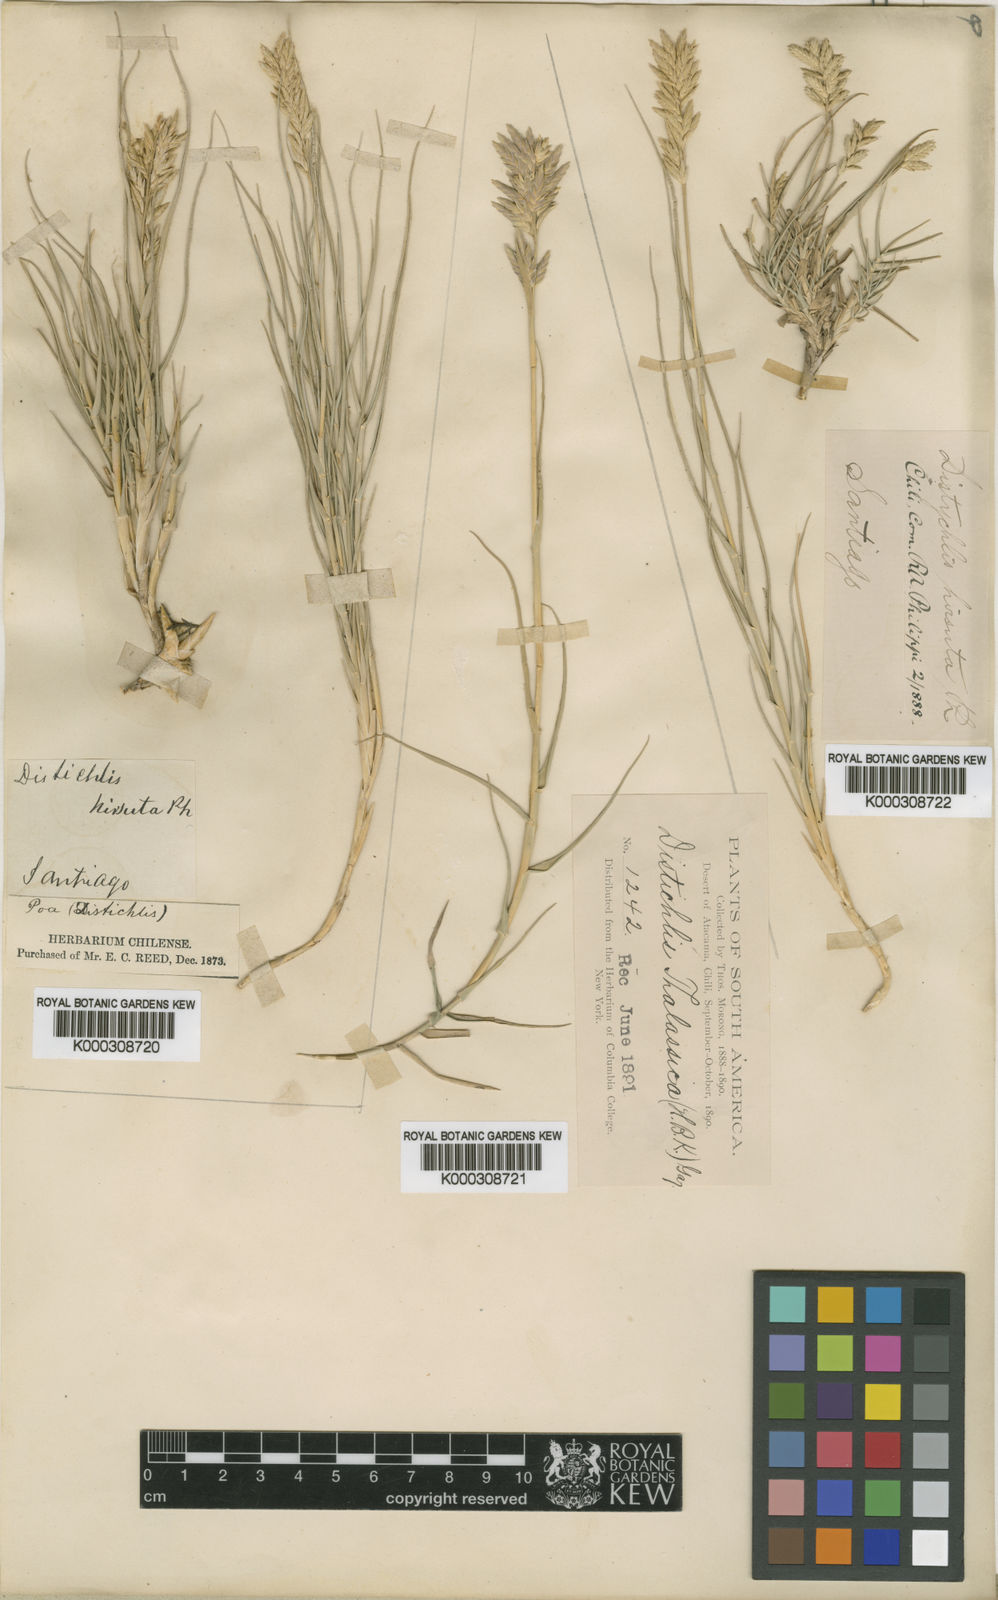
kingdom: Plantae
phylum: Tracheophyta
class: Liliopsida
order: Poales
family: Poaceae
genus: Distichlis
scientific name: Distichlis spicata
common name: Saltgrass
